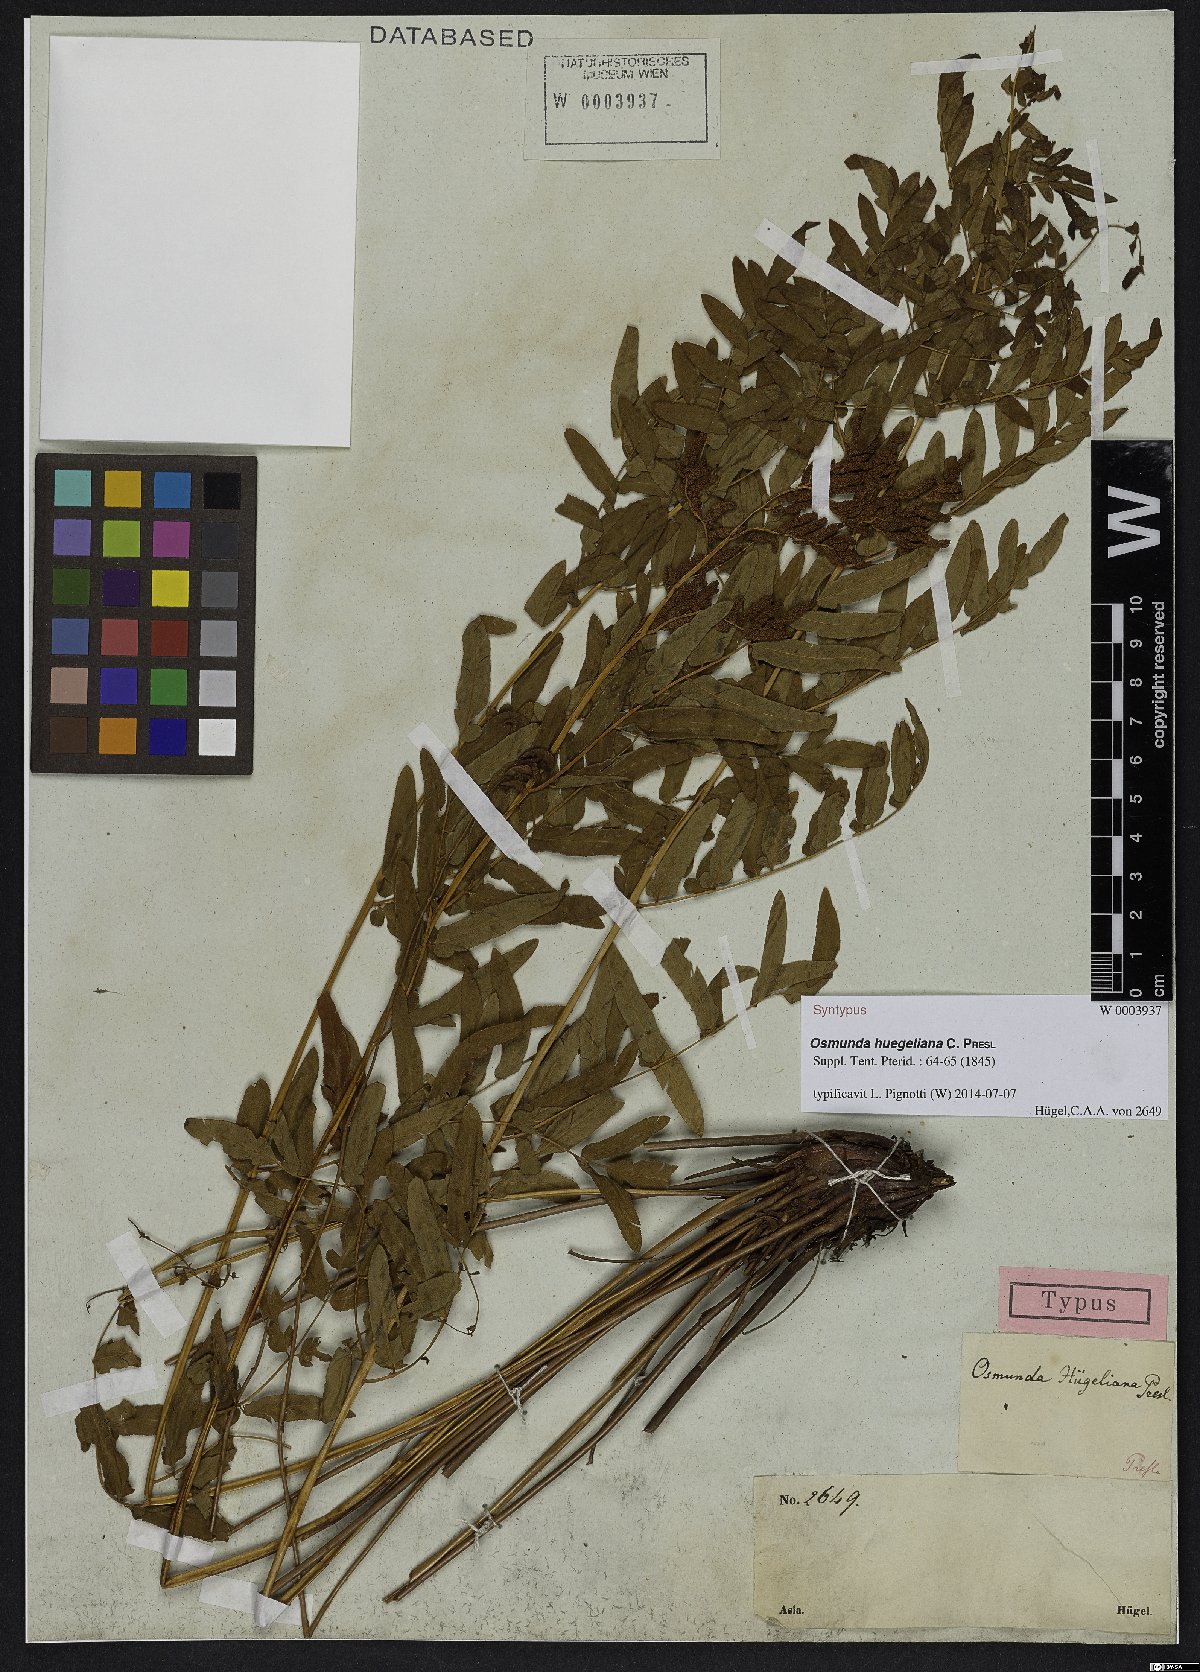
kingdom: Plantae
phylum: Tracheophyta
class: Polypodiopsida
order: Osmundales
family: Osmundaceae
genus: Osmunda
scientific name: Osmunda acuta
